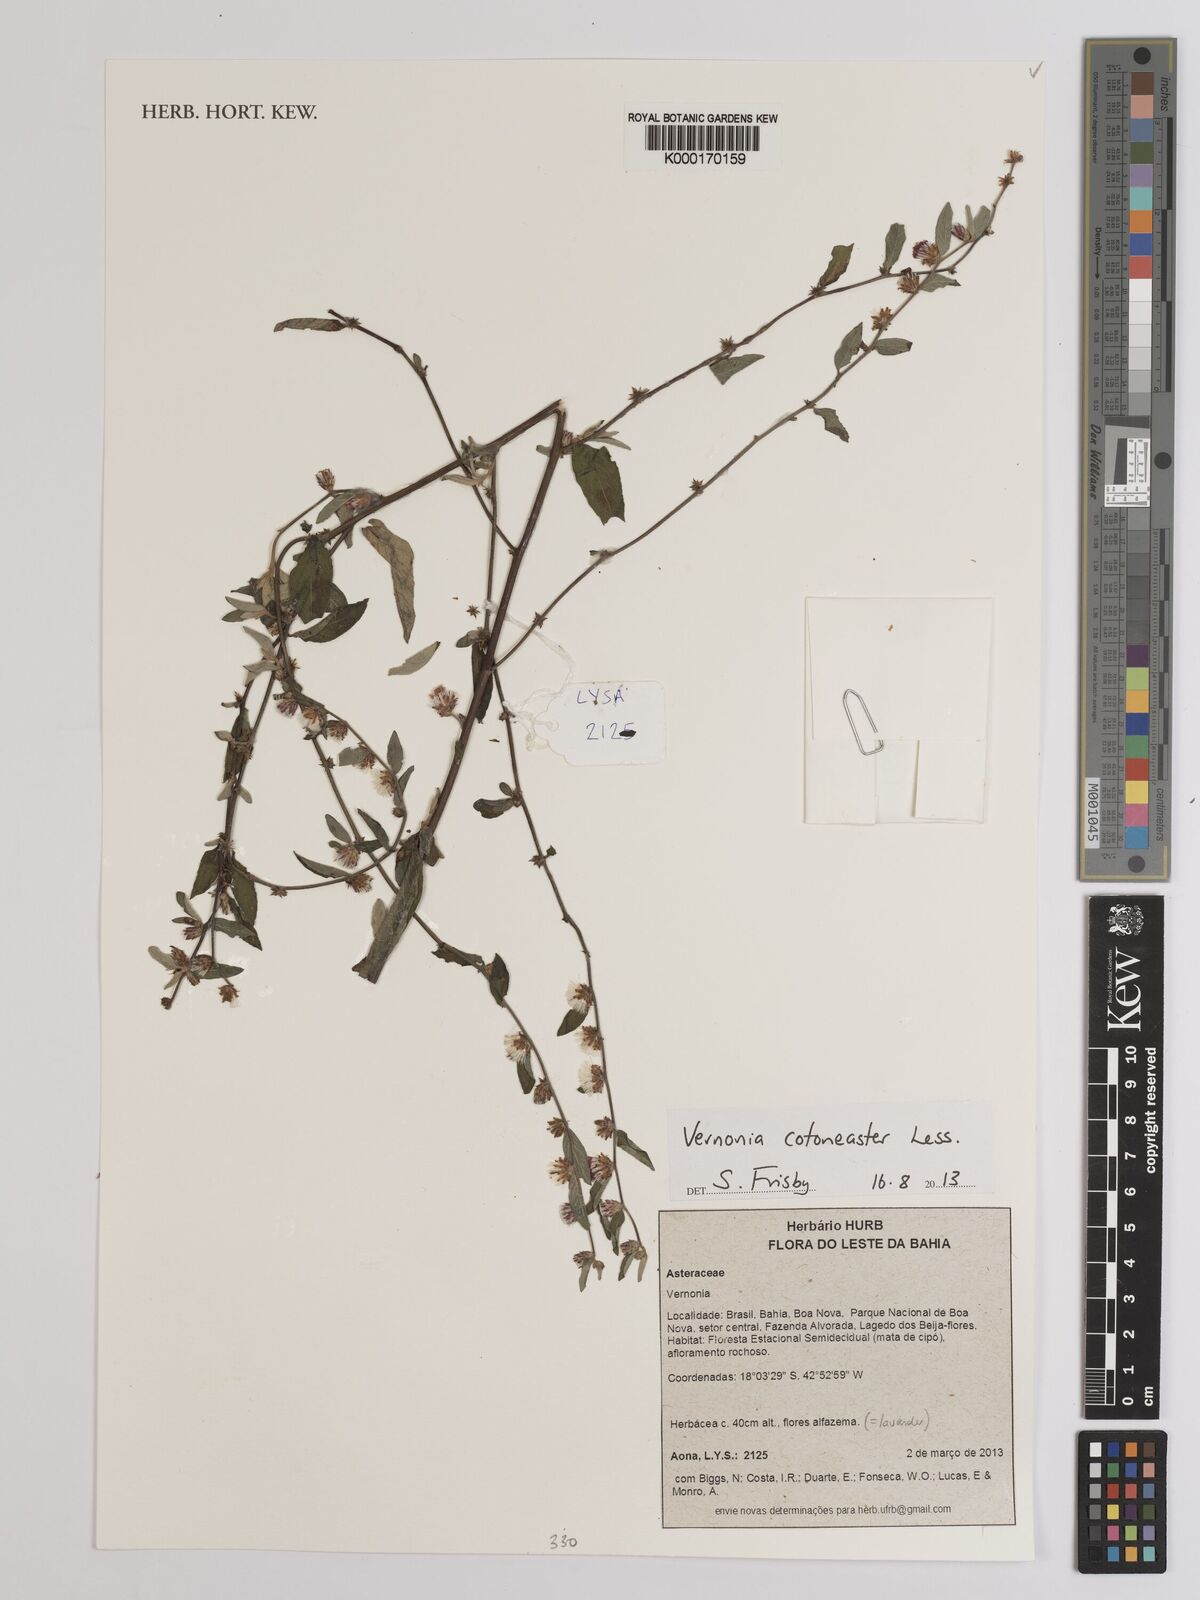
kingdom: Plantae
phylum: Tracheophyta
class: Magnoliopsida
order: Asterales
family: Asteraceae
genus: Lepidaploa
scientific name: Lepidaploa cotoneaster
